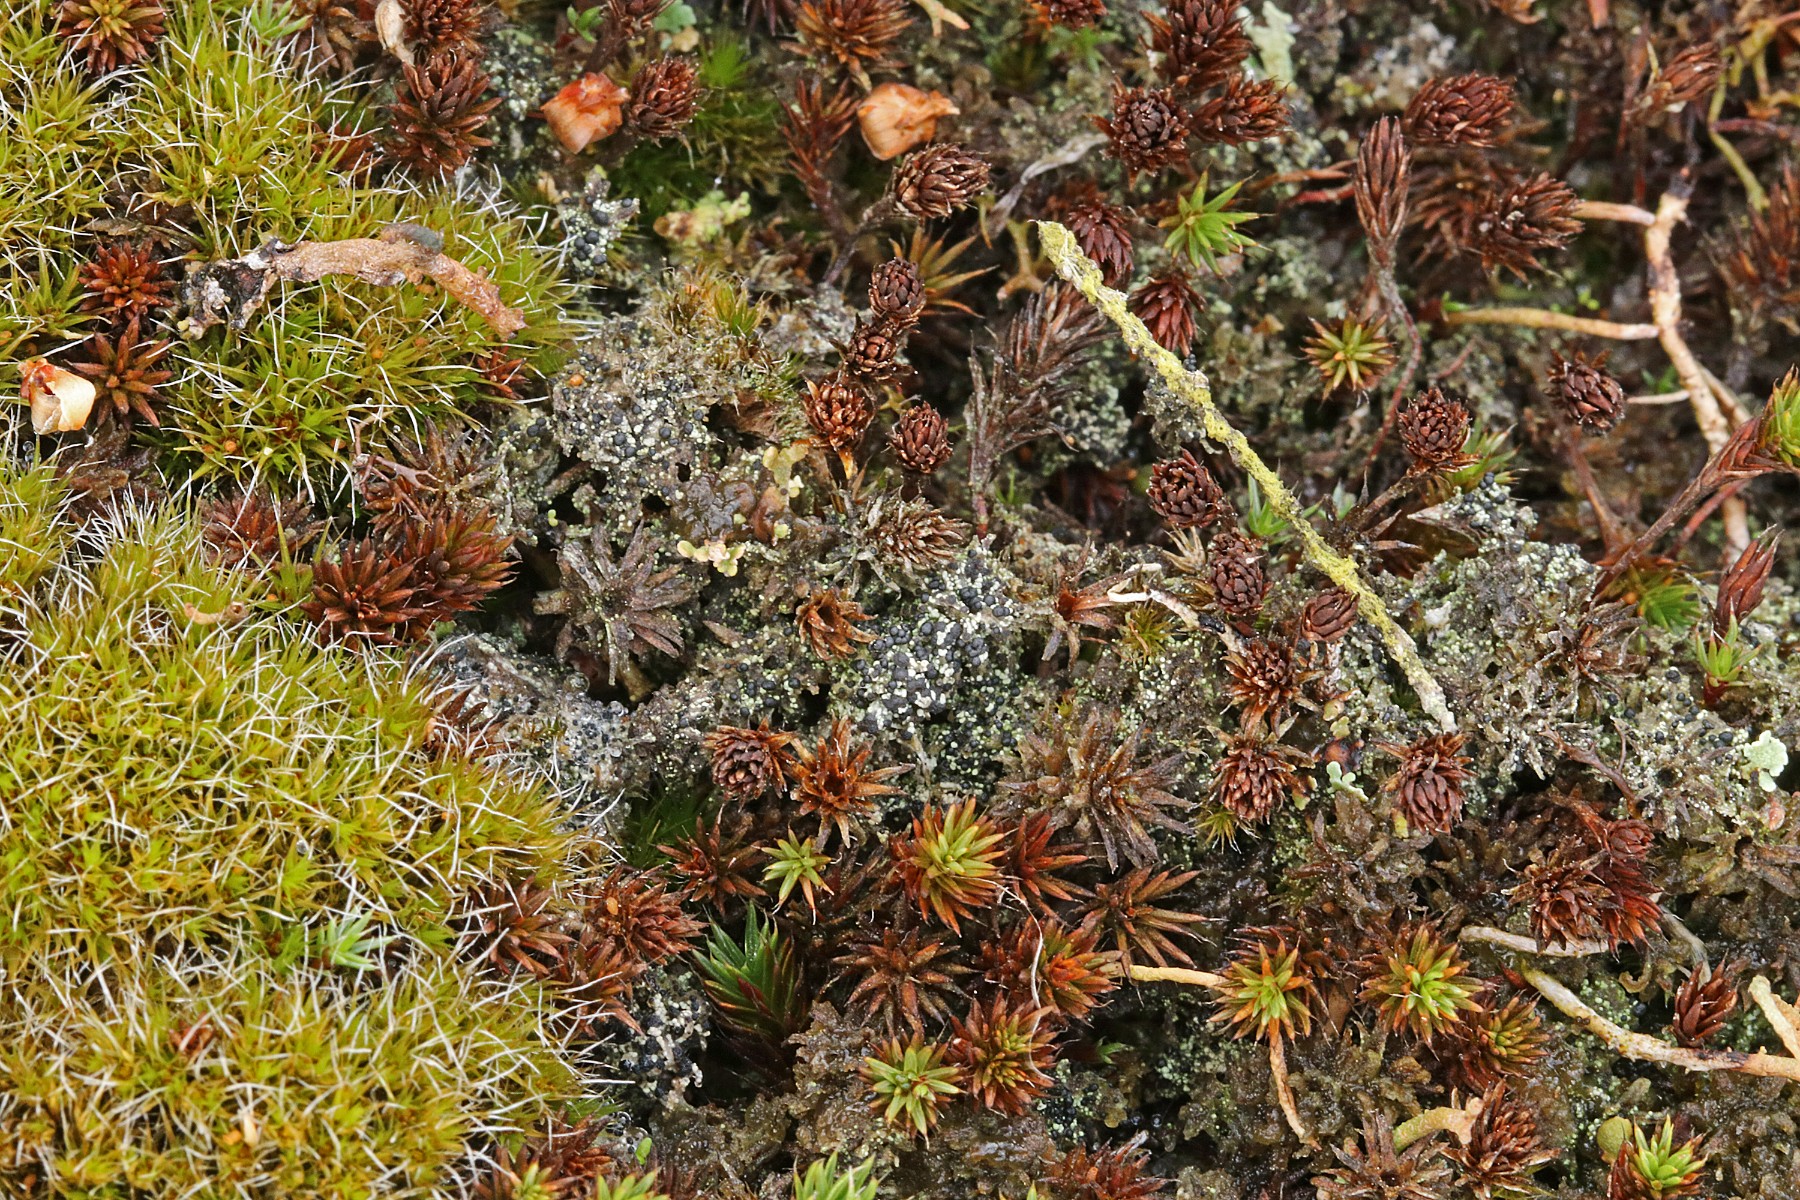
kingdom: Fungi
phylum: Ascomycota
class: Lecanoromycetes
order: Lecanorales
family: Byssolomataceae
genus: Micarea
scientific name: Micarea lignaria
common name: tørve-knaplav
